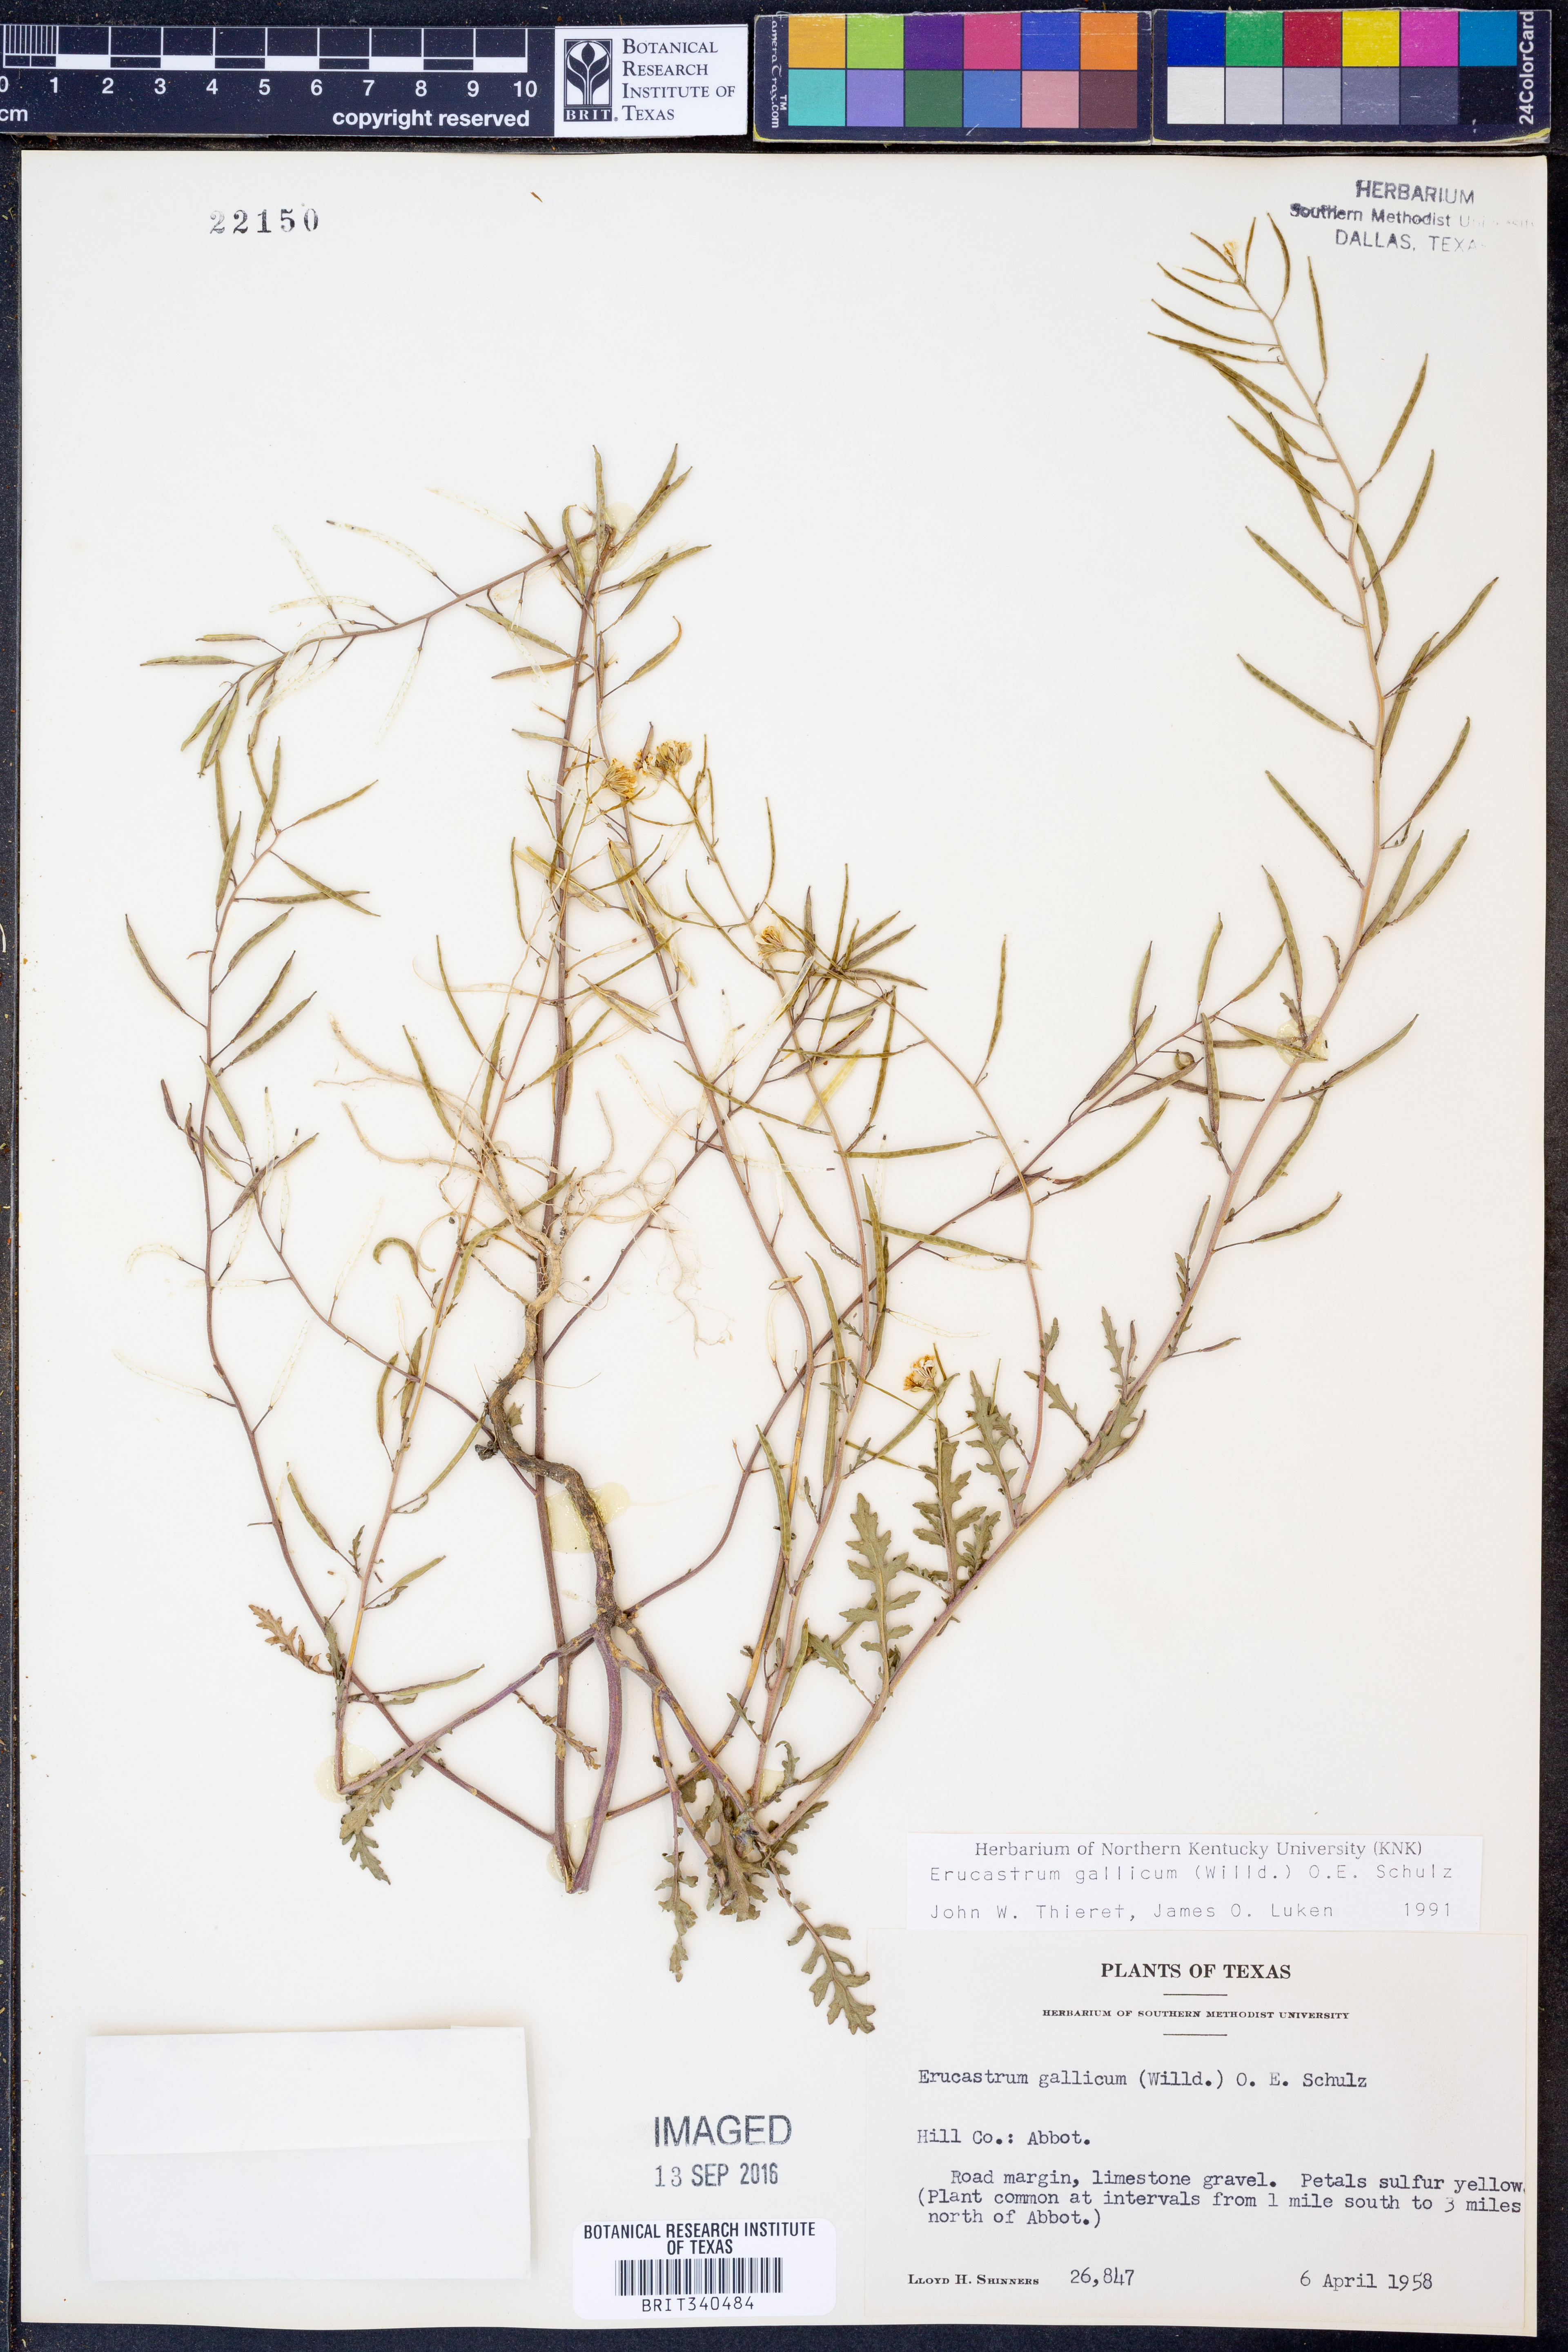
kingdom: Plantae
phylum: Tracheophyta
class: Magnoliopsida
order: Brassicales
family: Brassicaceae
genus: Erucastrum
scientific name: Erucastrum gallicum
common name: Hairy rocket
